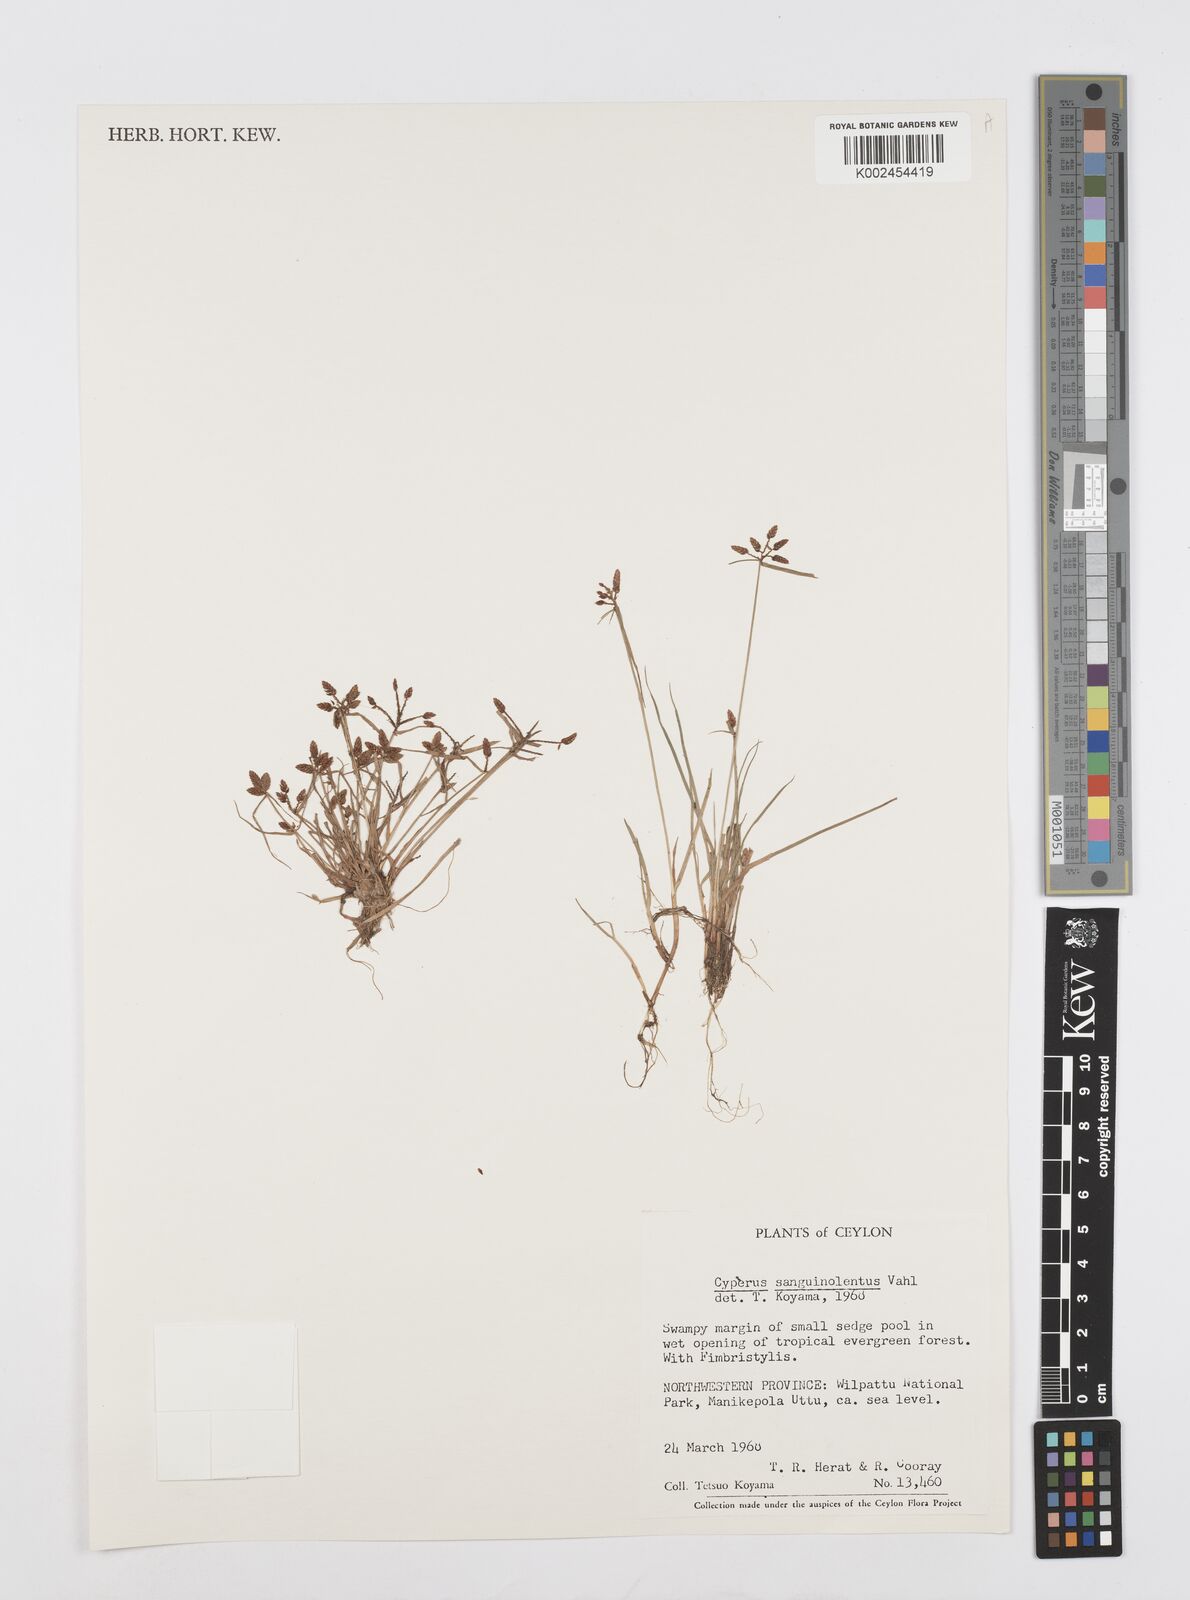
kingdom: Plantae
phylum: Tracheophyta
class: Liliopsida
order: Poales
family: Cyperaceae
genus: Cyperus
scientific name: Cyperus sanguinolentus
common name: Purpleglume flatsedge
